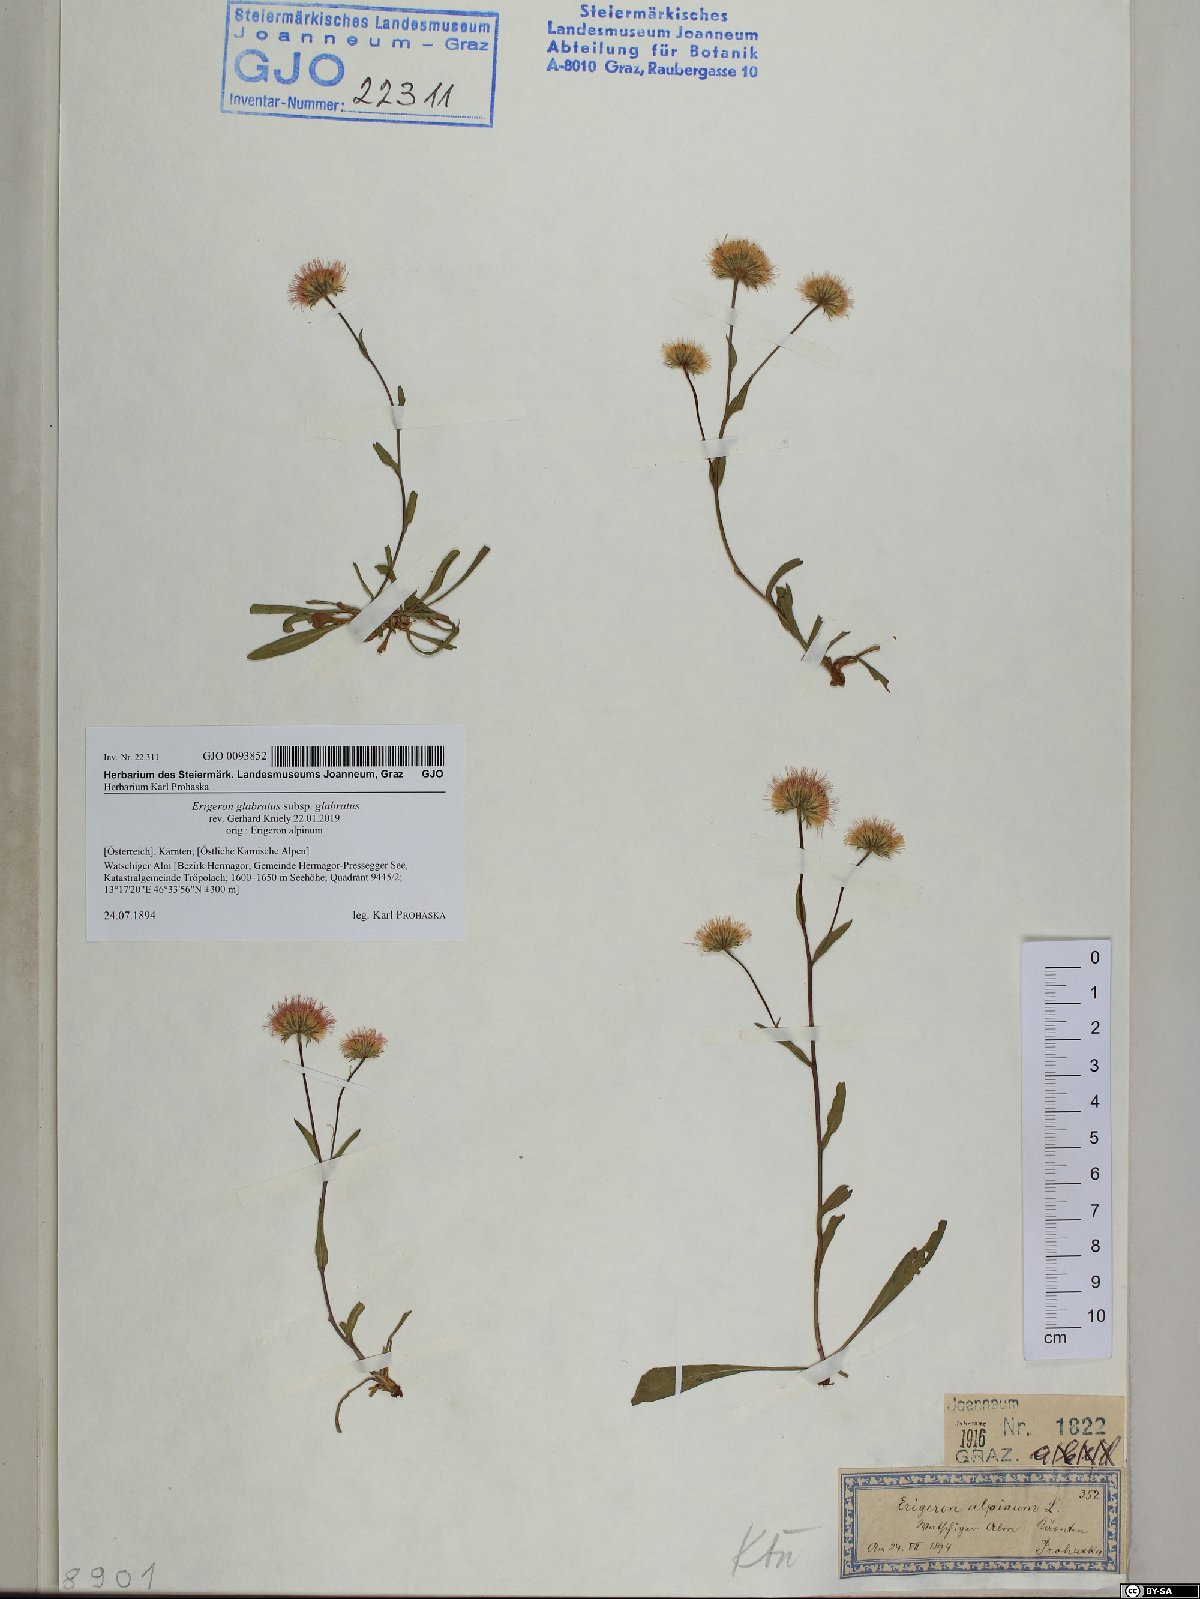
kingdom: Plantae
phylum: Tracheophyta
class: Magnoliopsida
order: Asterales
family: Asteraceae
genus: Erigeron
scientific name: Erigeron glabratus
